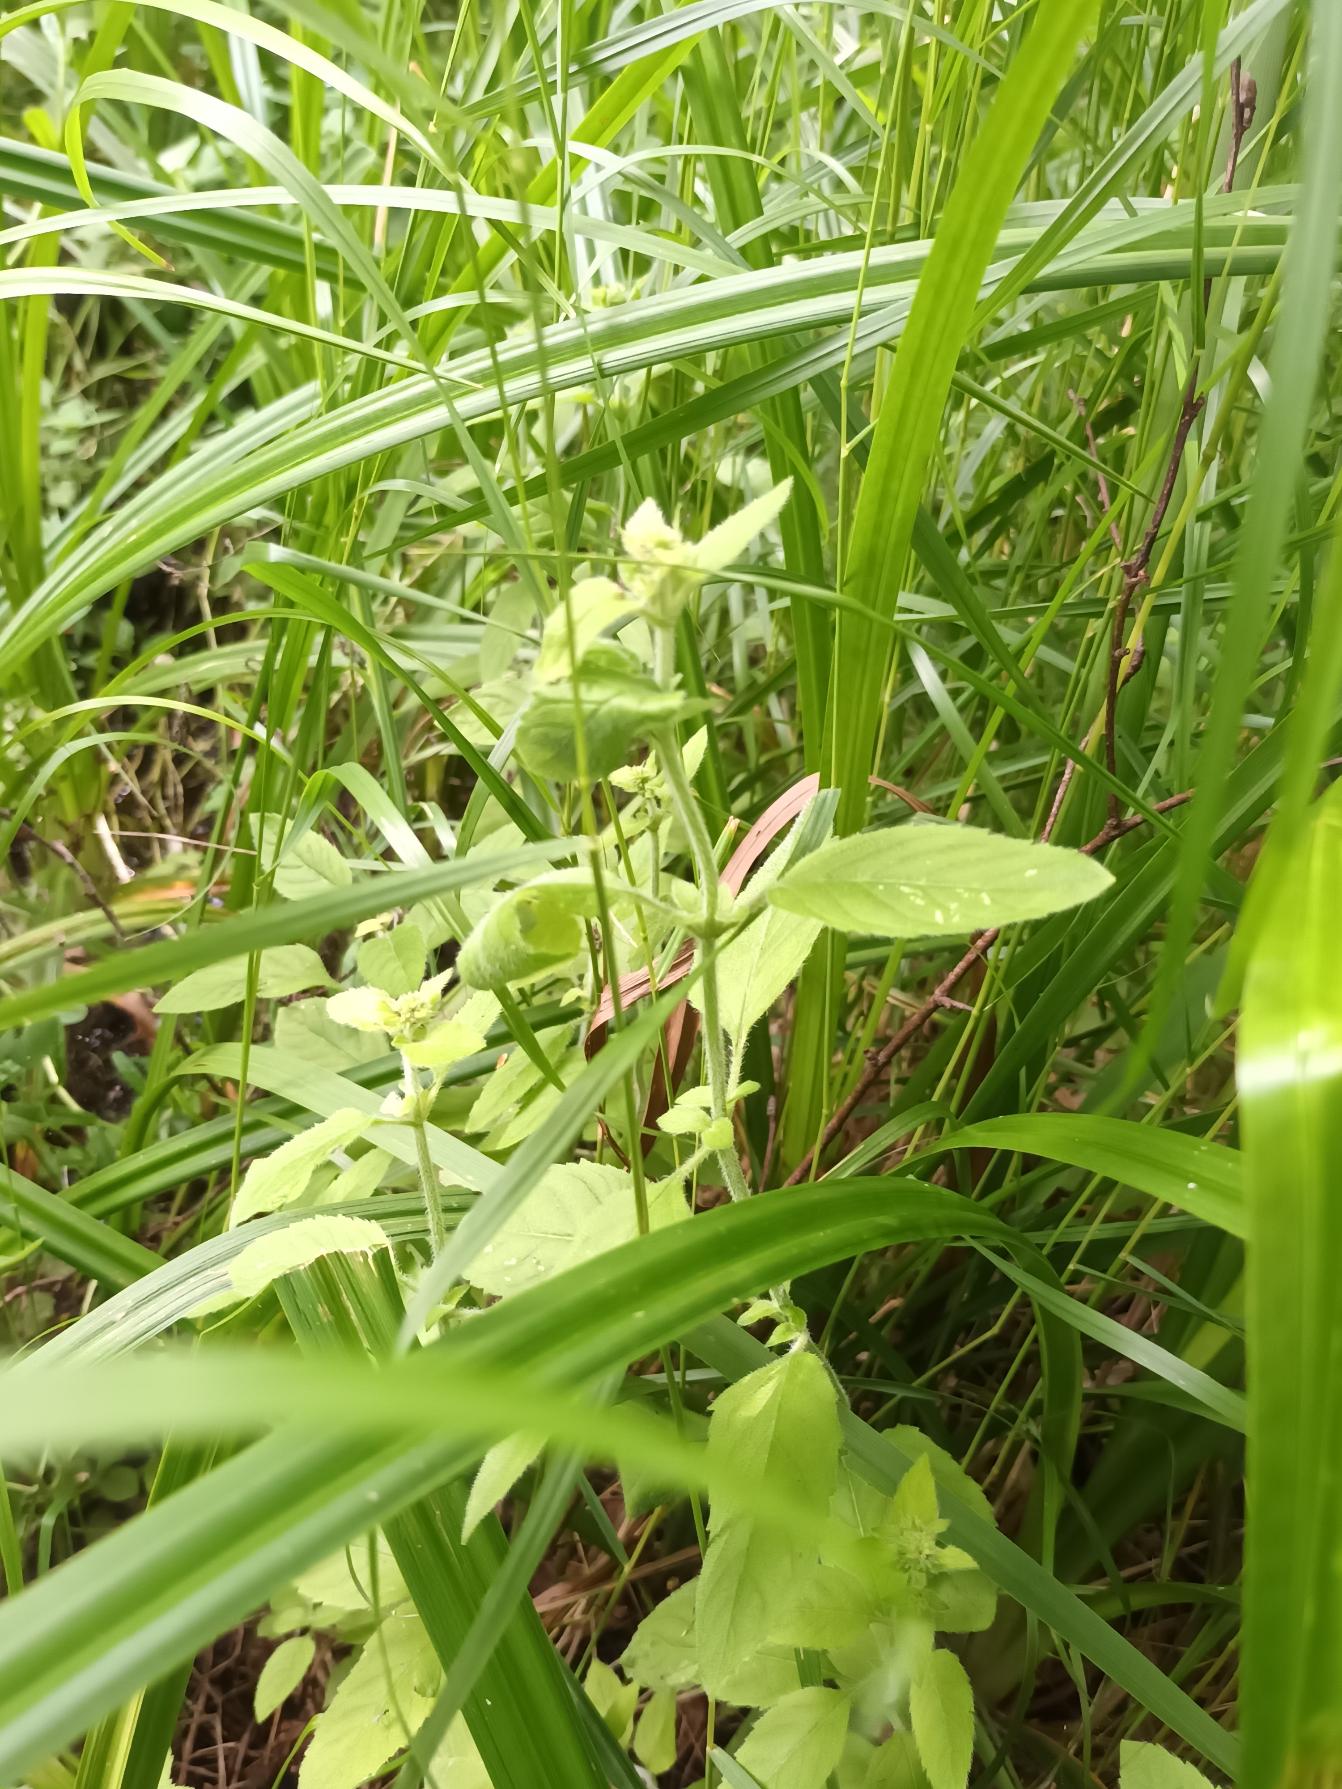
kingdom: Plantae
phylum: Tracheophyta
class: Magnoliopsida
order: Lamiales
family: Lamiaceae
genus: Mentha
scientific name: Mentha aquatica
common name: Vand-mynte
